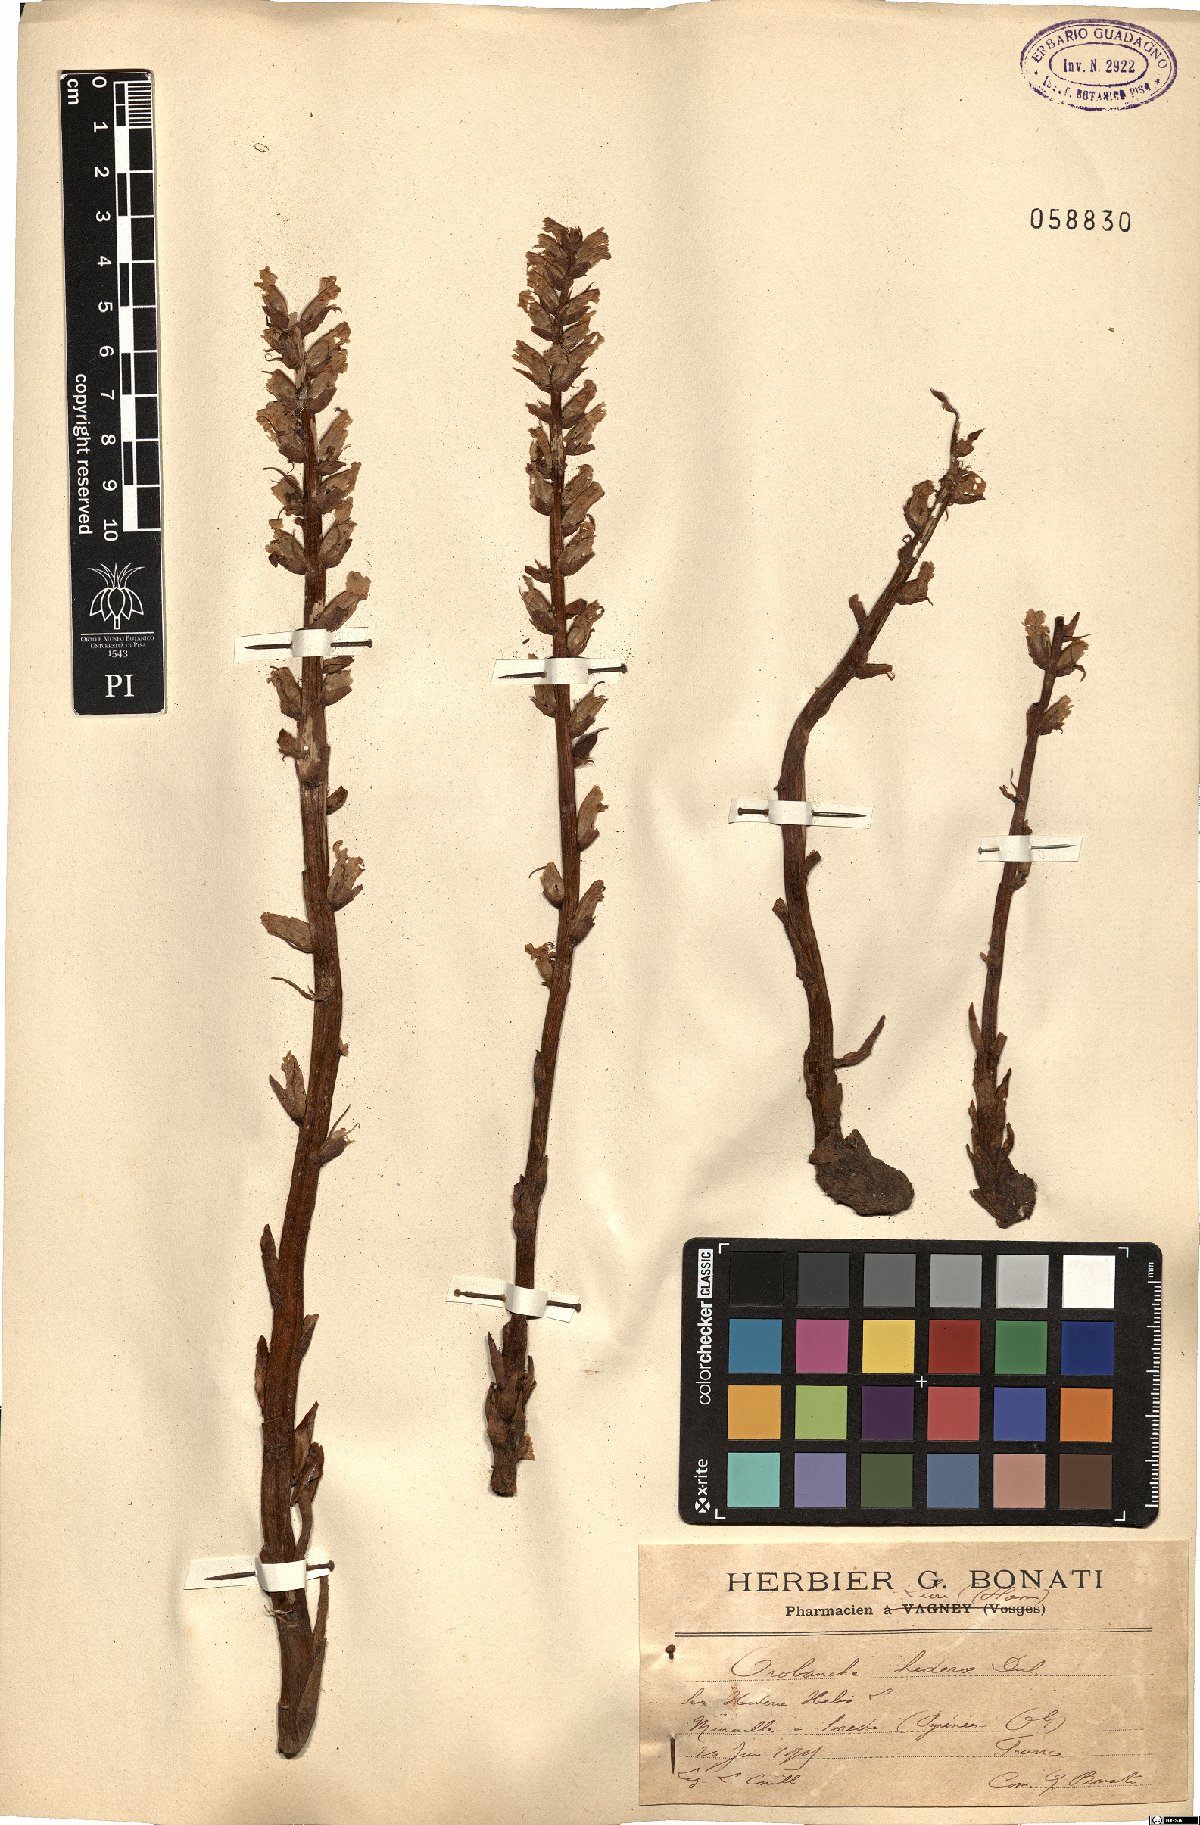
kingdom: Plantae
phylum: Tracheophyta
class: Magnoliopsida
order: Lamiales
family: Orobanchaceae
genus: Orobanche
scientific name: Orobanche hederae
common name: Ivy broomrape
